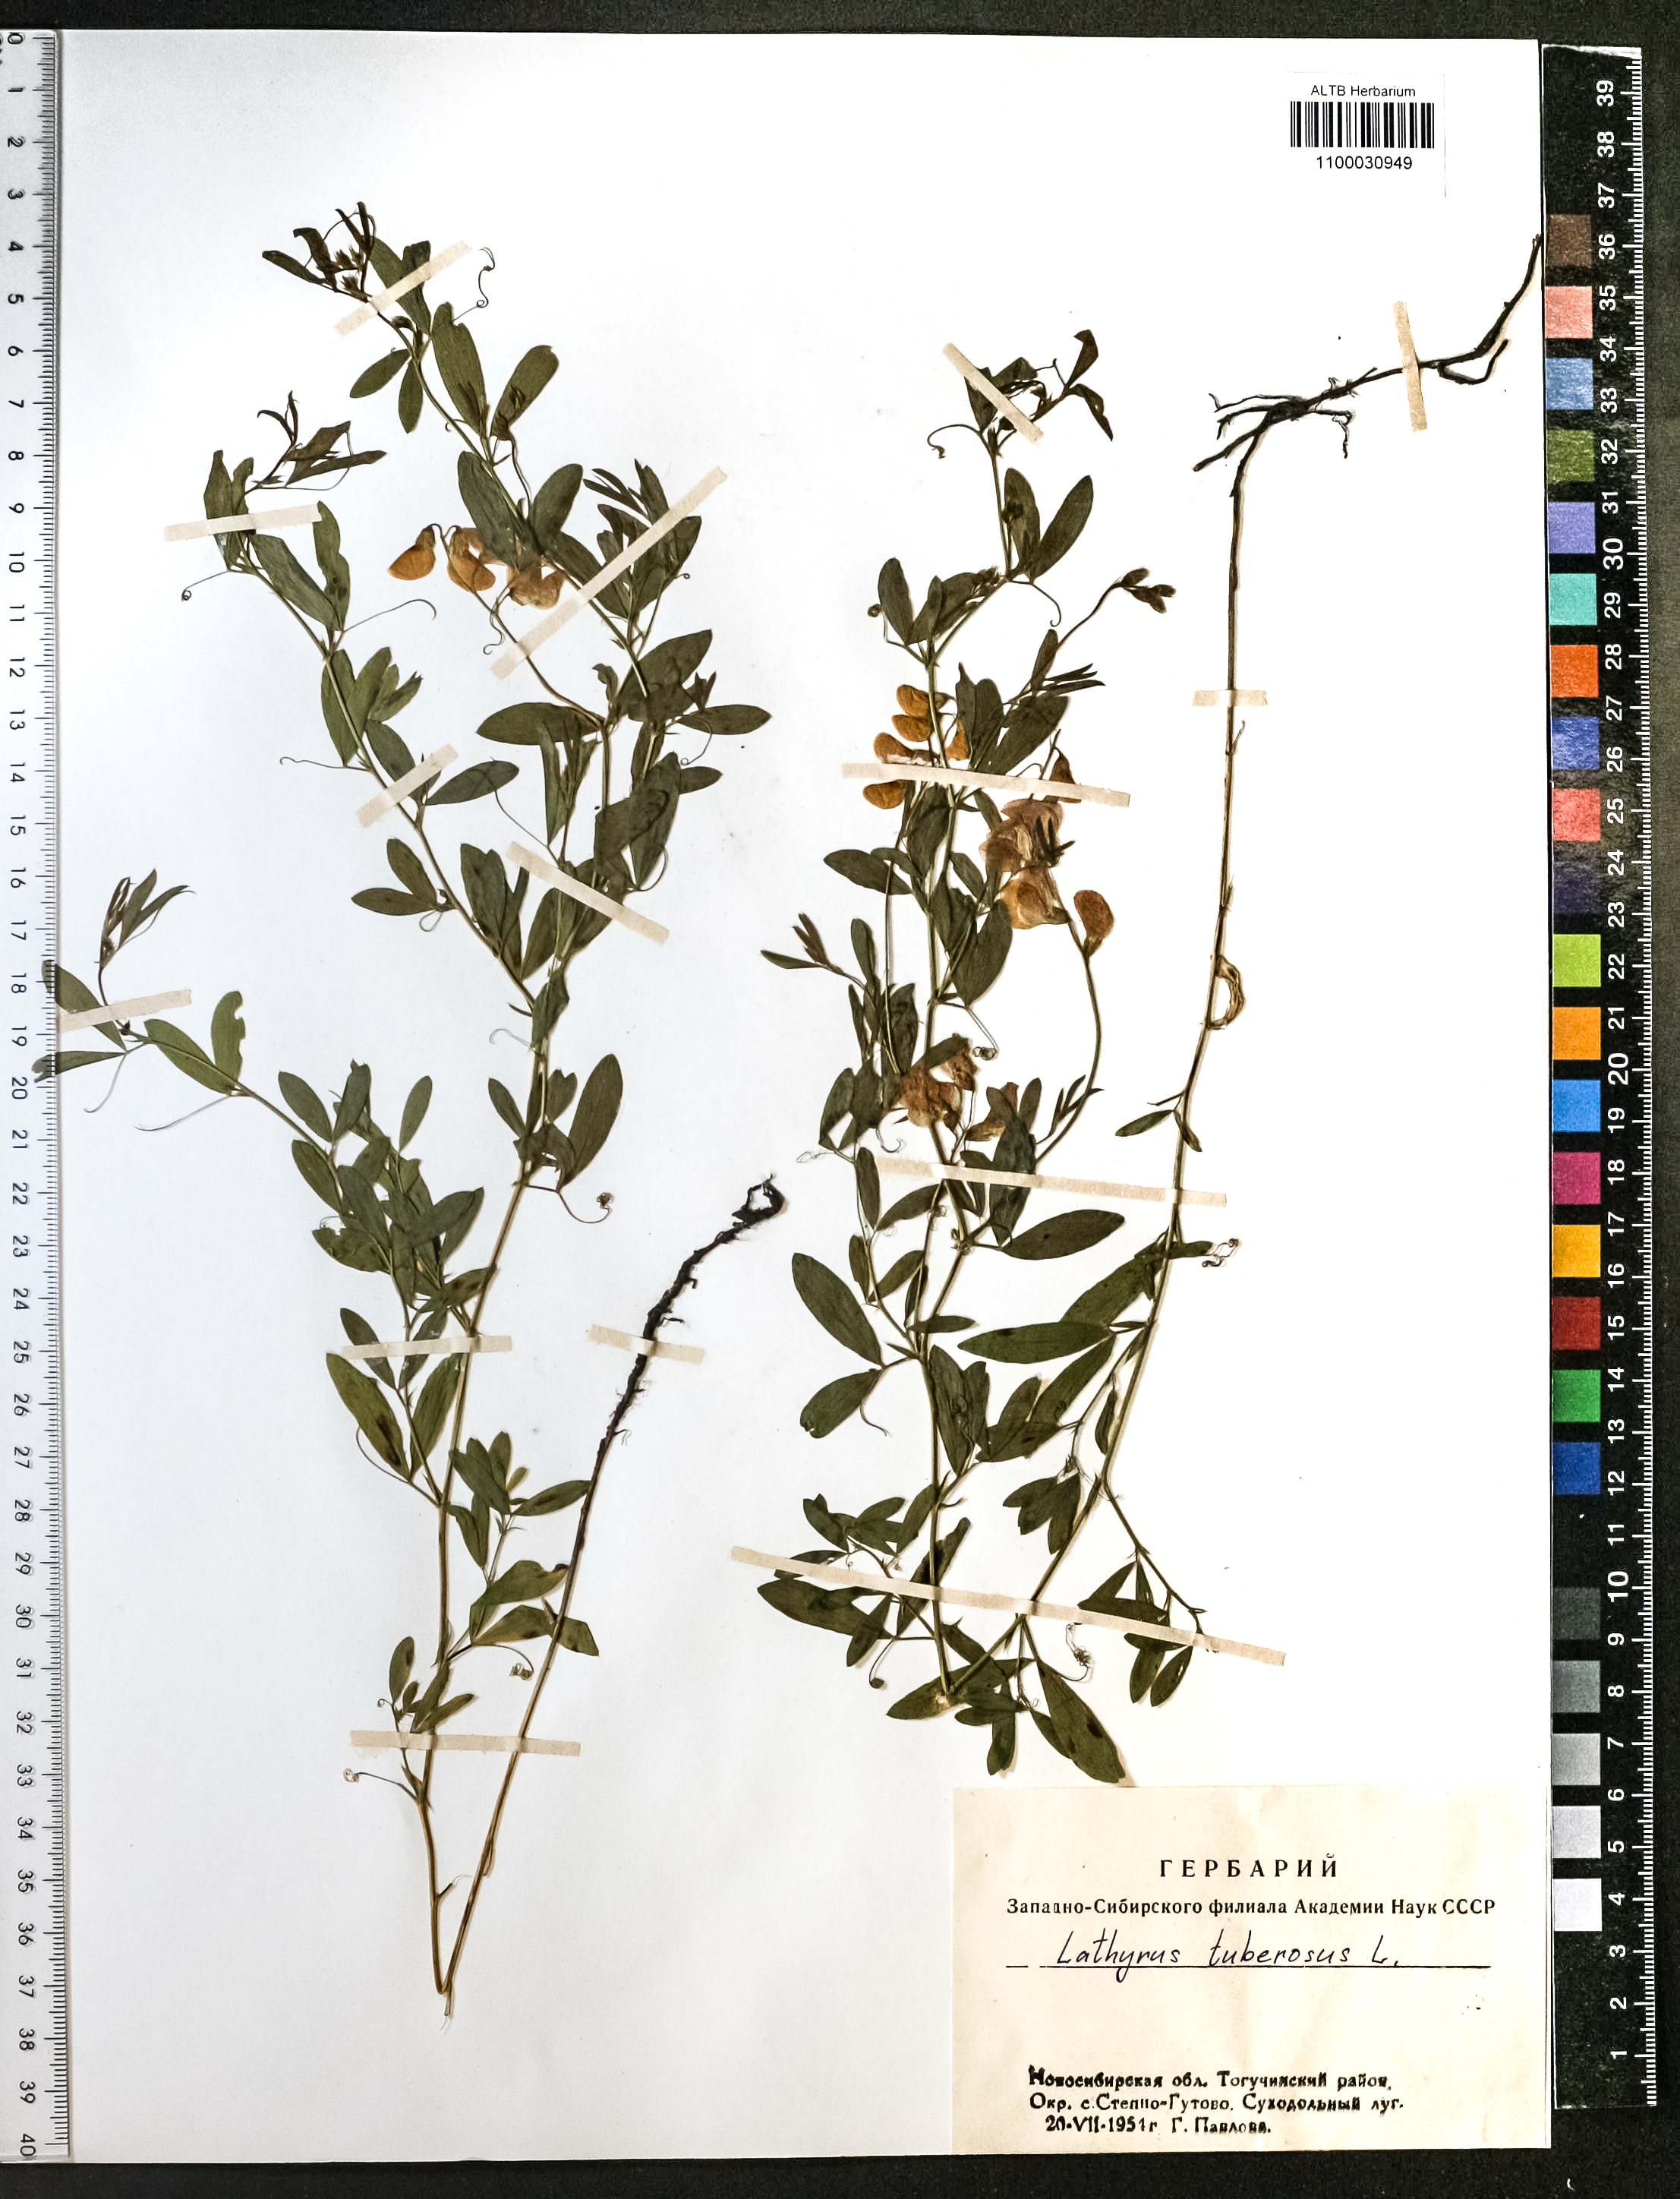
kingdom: Plantae
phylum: Tracheophyta
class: Magnoliopsida
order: Fabales
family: Fabaceae
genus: Lathyrus
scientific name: Lathyrus tuberosus
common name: Tuberous pea
